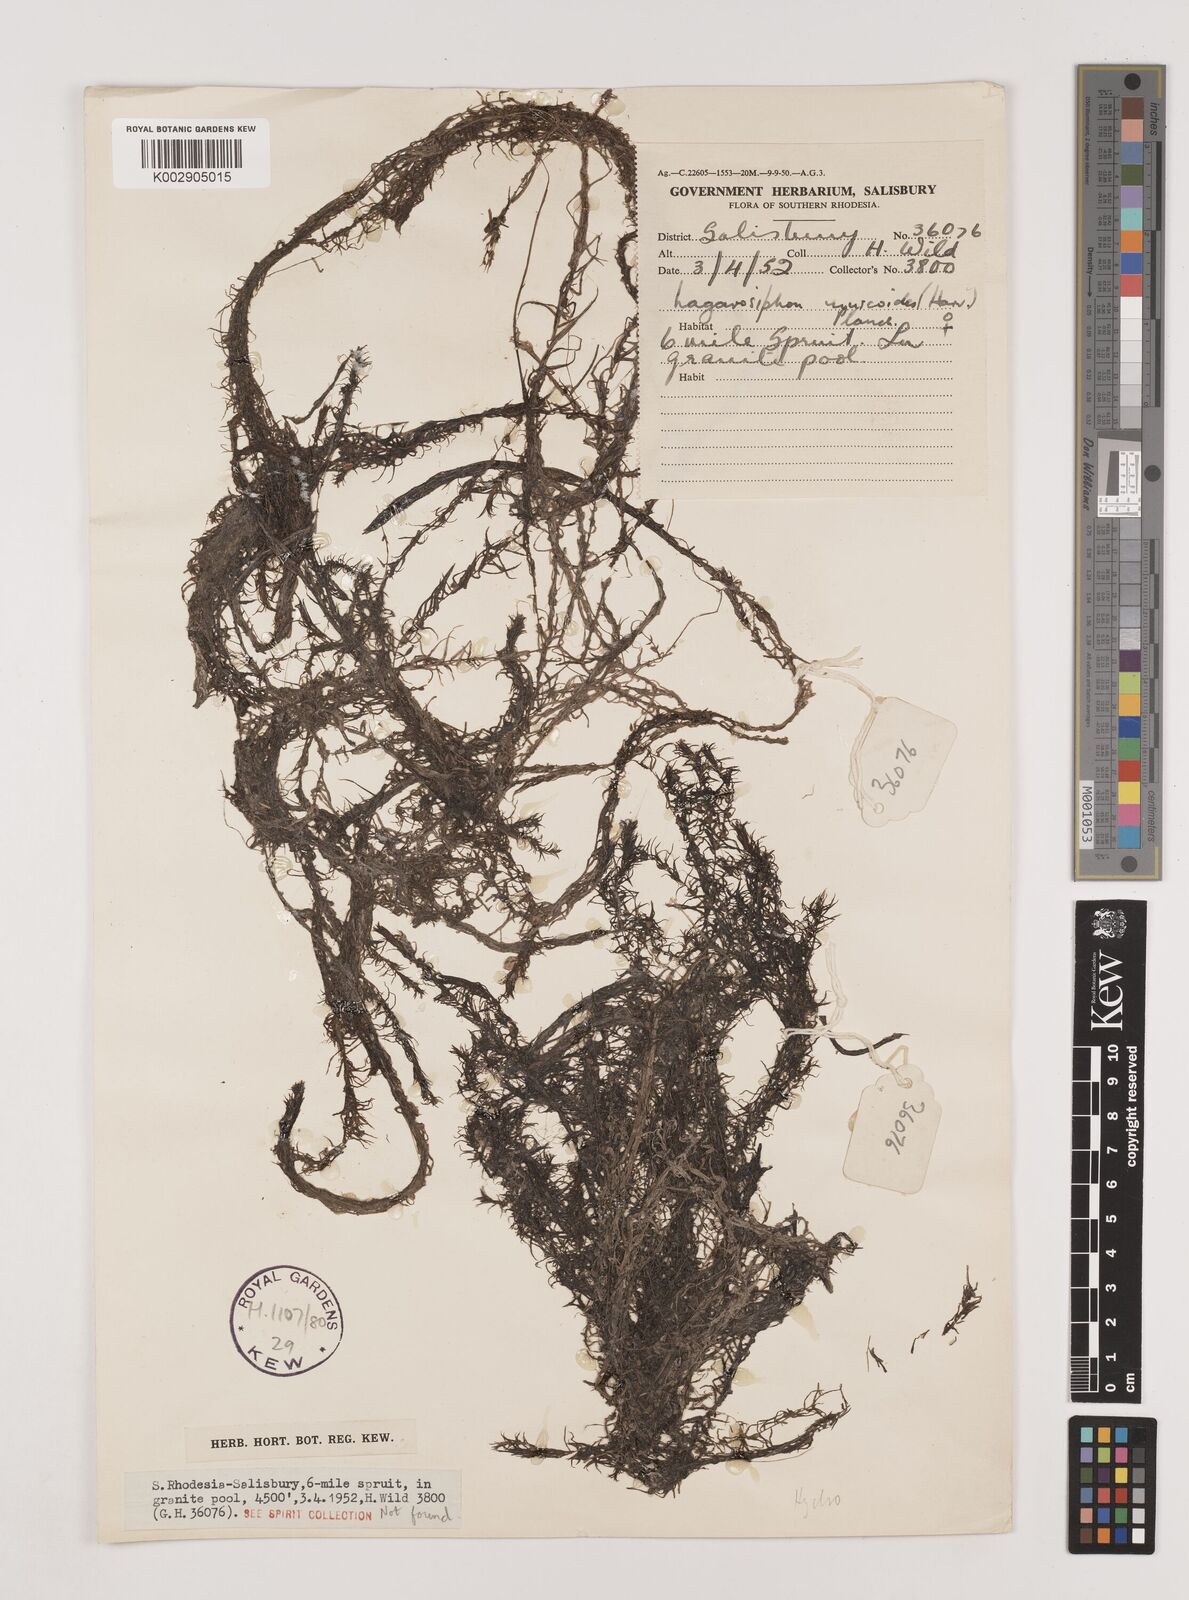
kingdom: Plantae
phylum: Tracheophyta
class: Liliopsida
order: Alismatales
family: Hydrocharitaceae
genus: Lagarosiphon
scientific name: Lagarosiphon muscoides
